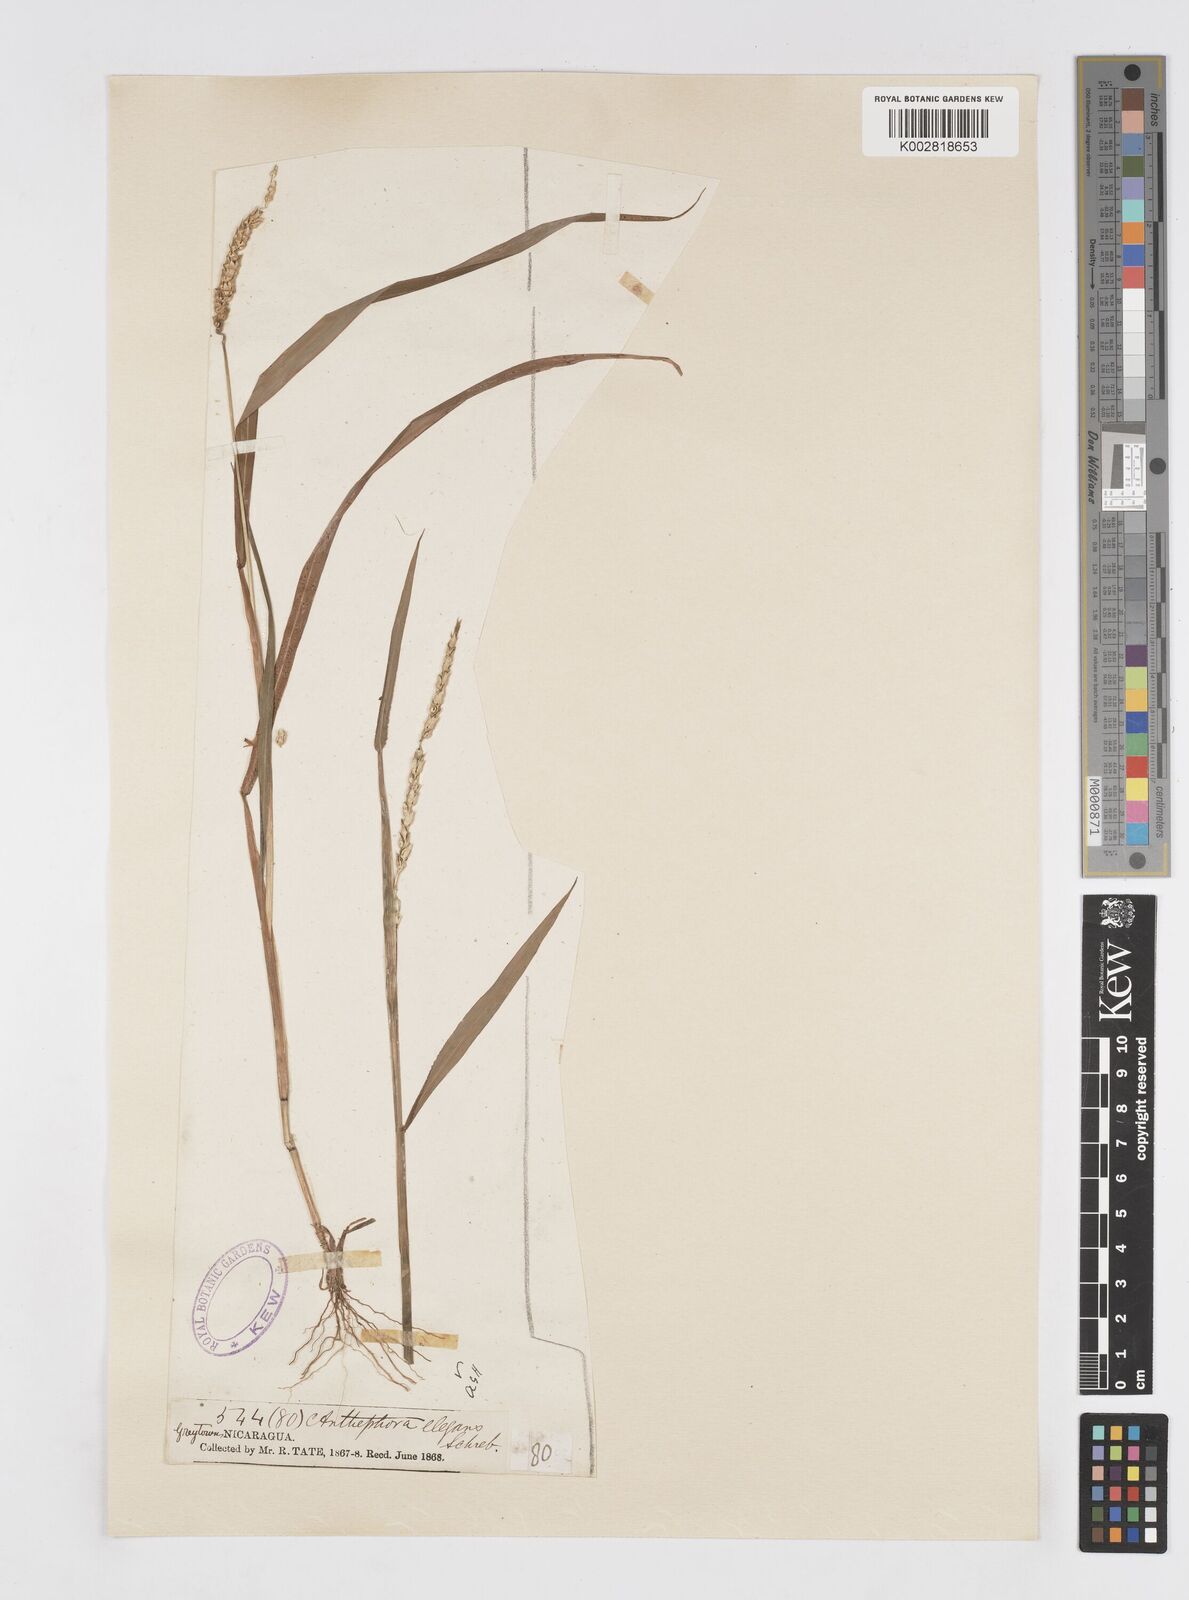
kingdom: Plantae
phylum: Tracheophyta
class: Liliopsida
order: Poales
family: Poaceae
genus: Anthephora
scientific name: Anthephora hermaphrodita
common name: Oldfield grass
